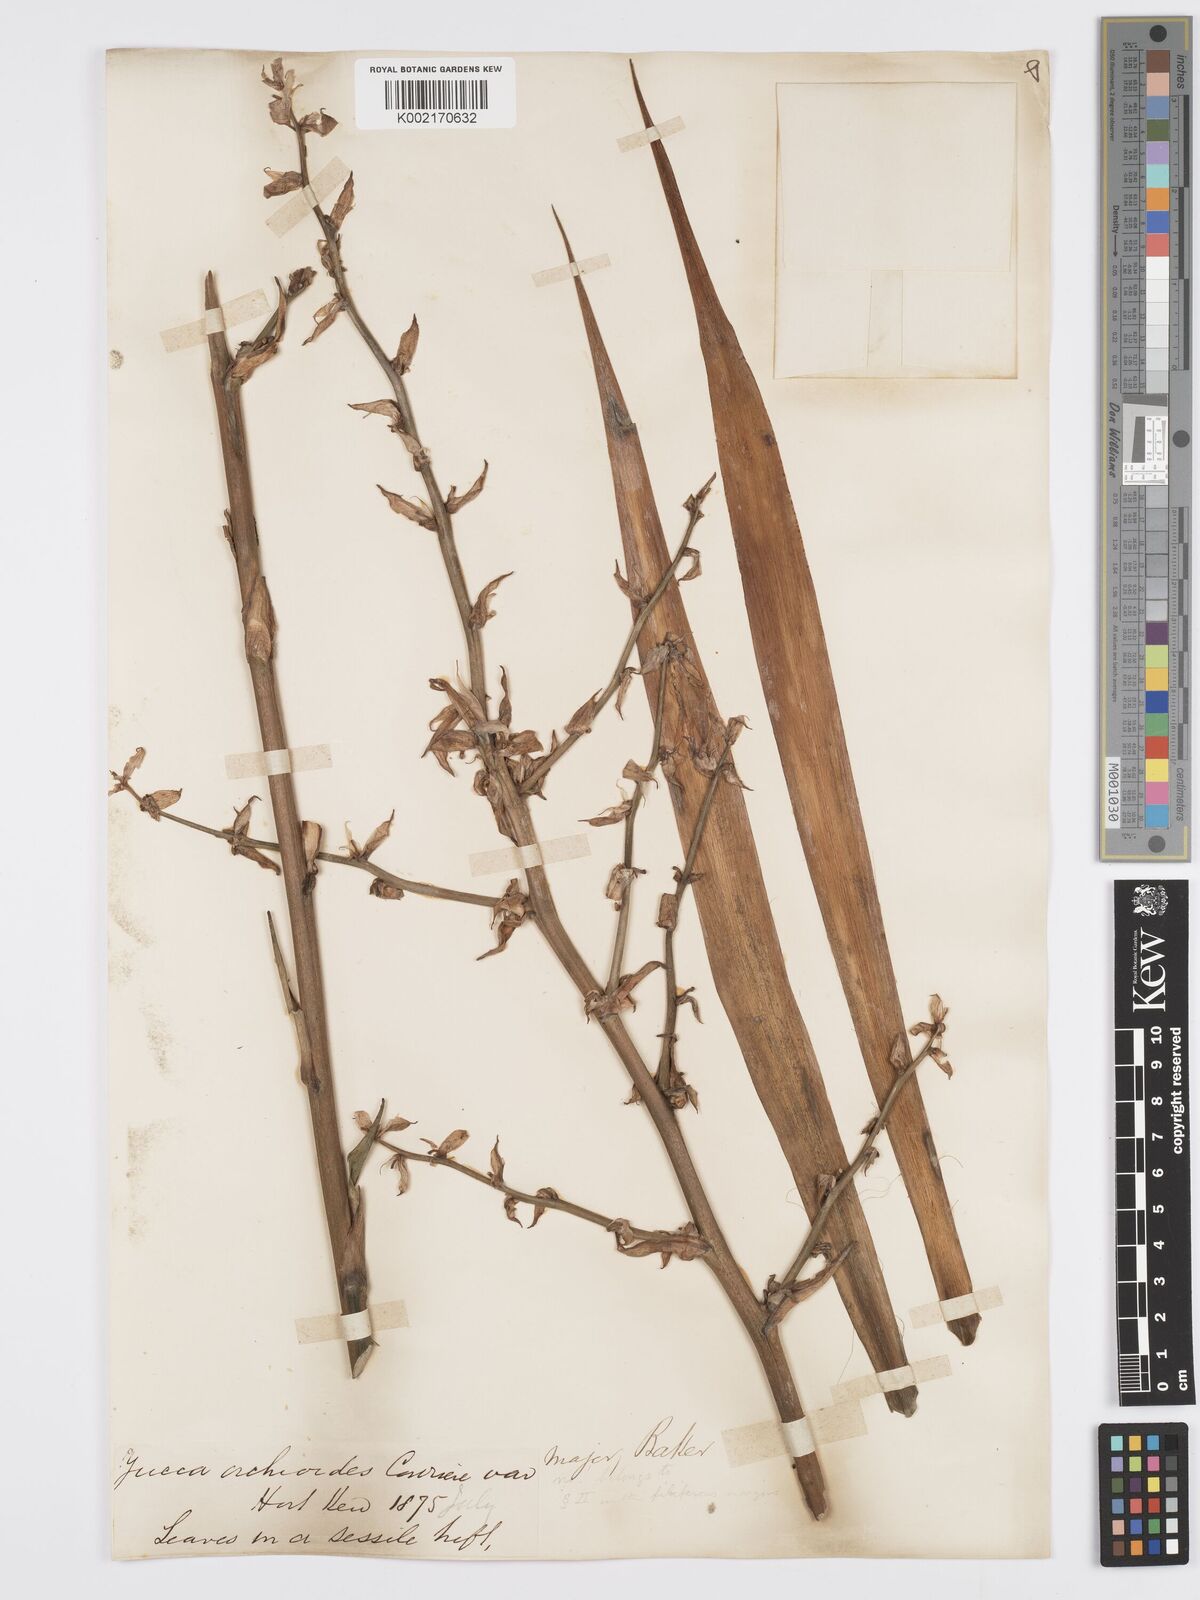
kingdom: Plantae
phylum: Tracheophyta
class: Liliopsida
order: Asparagales
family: Asparagaceae
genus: Yucca
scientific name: Yucca flaccida
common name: Adam's-needle
